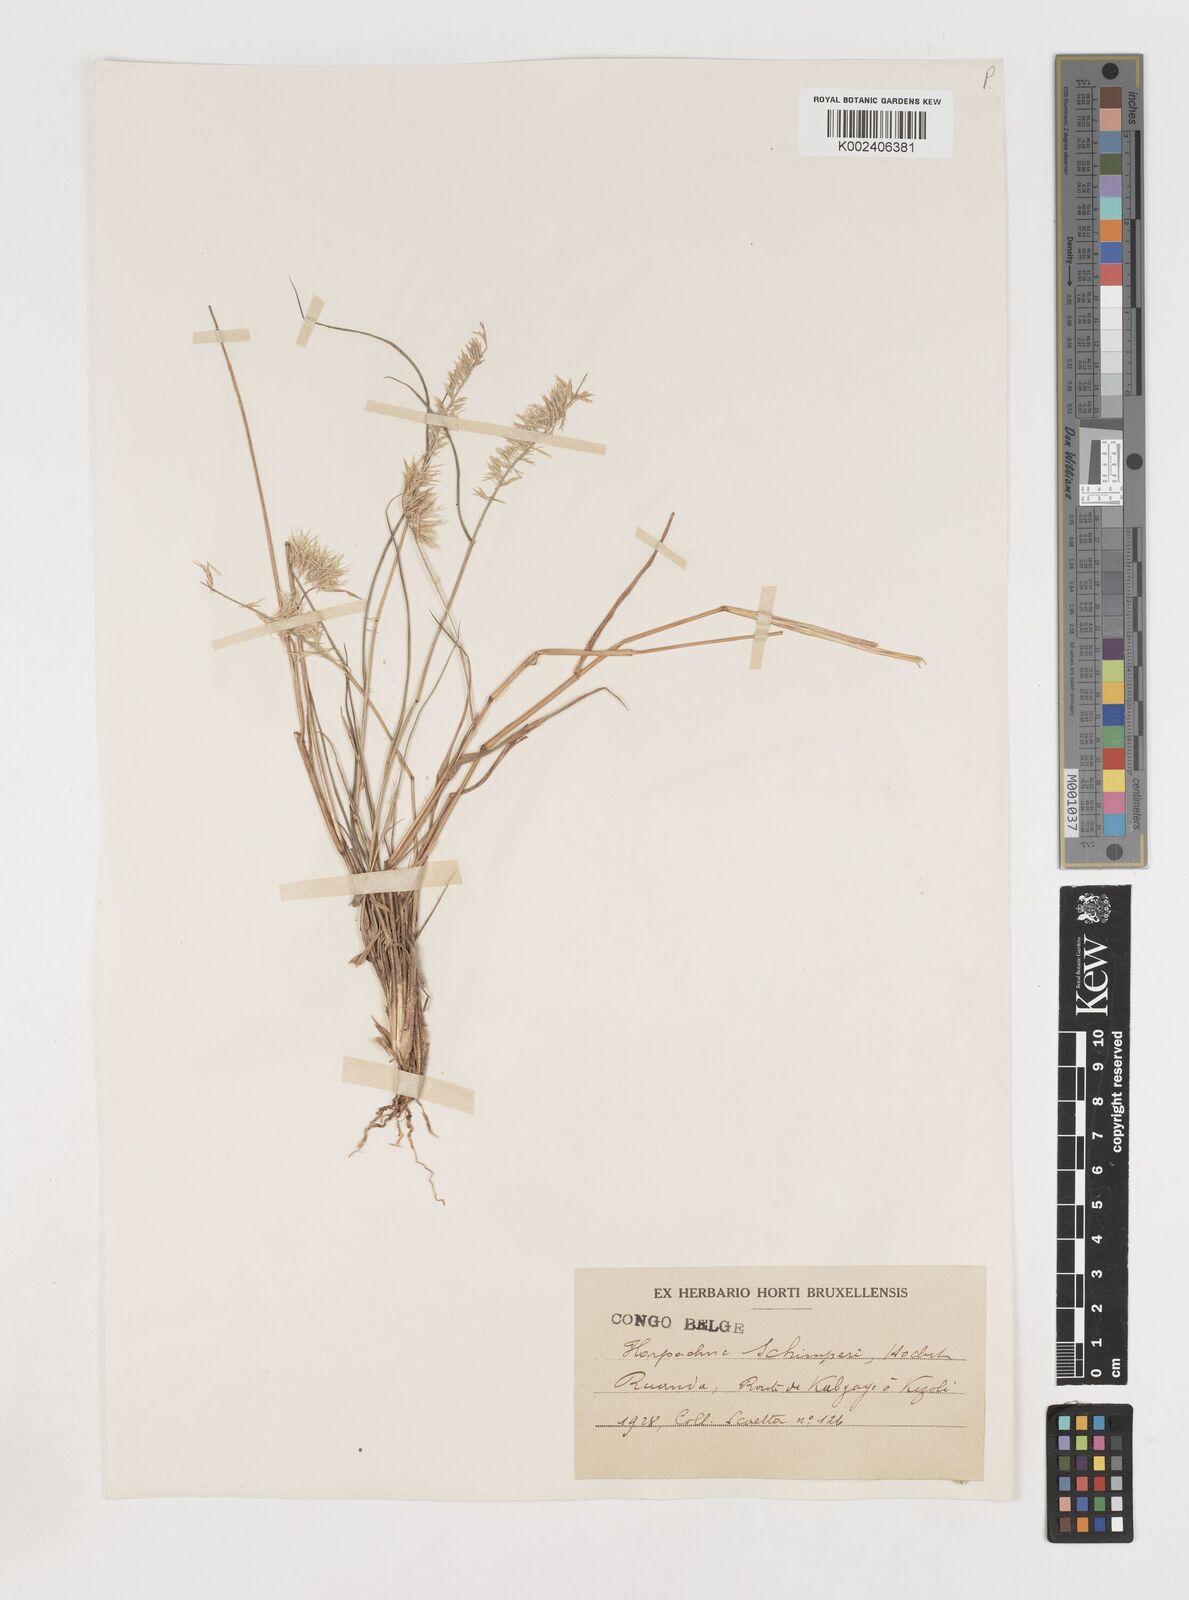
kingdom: Plantae
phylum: Tracheophyta
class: Liliopsida
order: Poales
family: Poaceae
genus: Harpachne
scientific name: Harpachne schimperi
